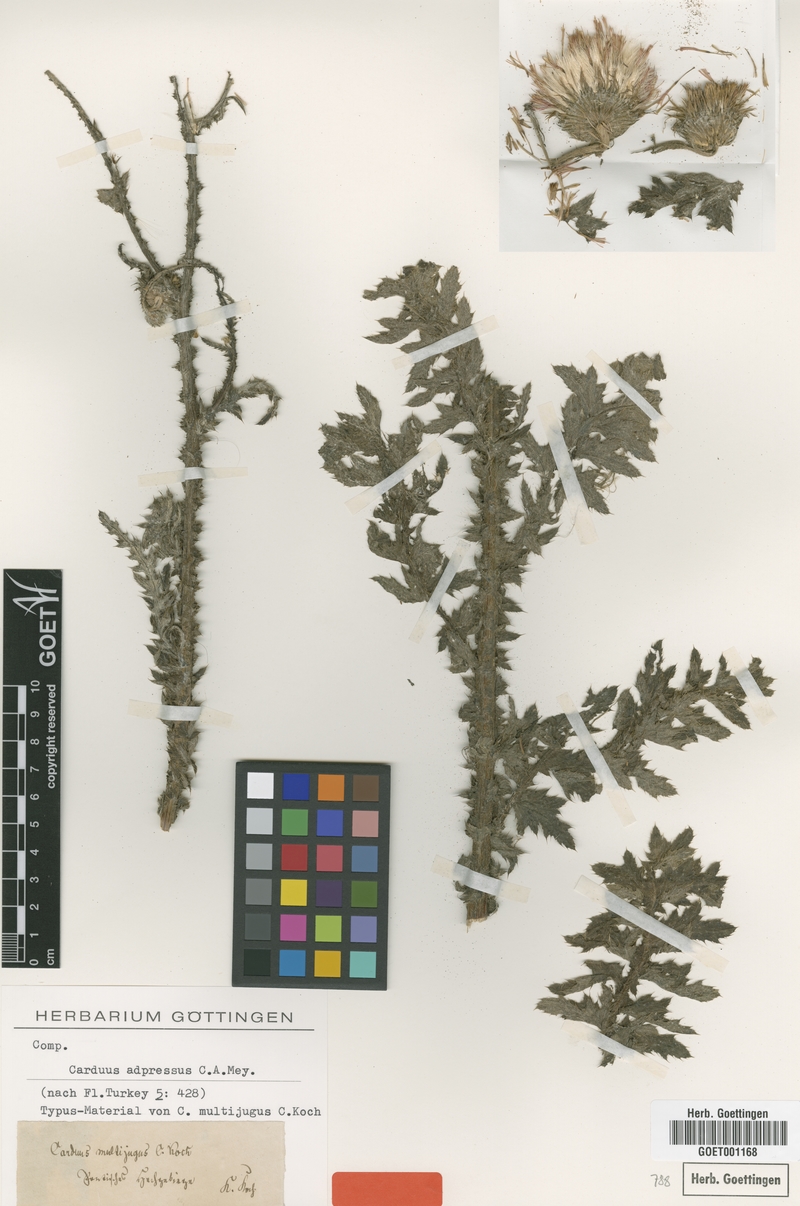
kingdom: Plantae
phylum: Tracheophyta
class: Magnoliopsida
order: Asterales
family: Asteraceae
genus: Carduus
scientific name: Carduus adpressus
